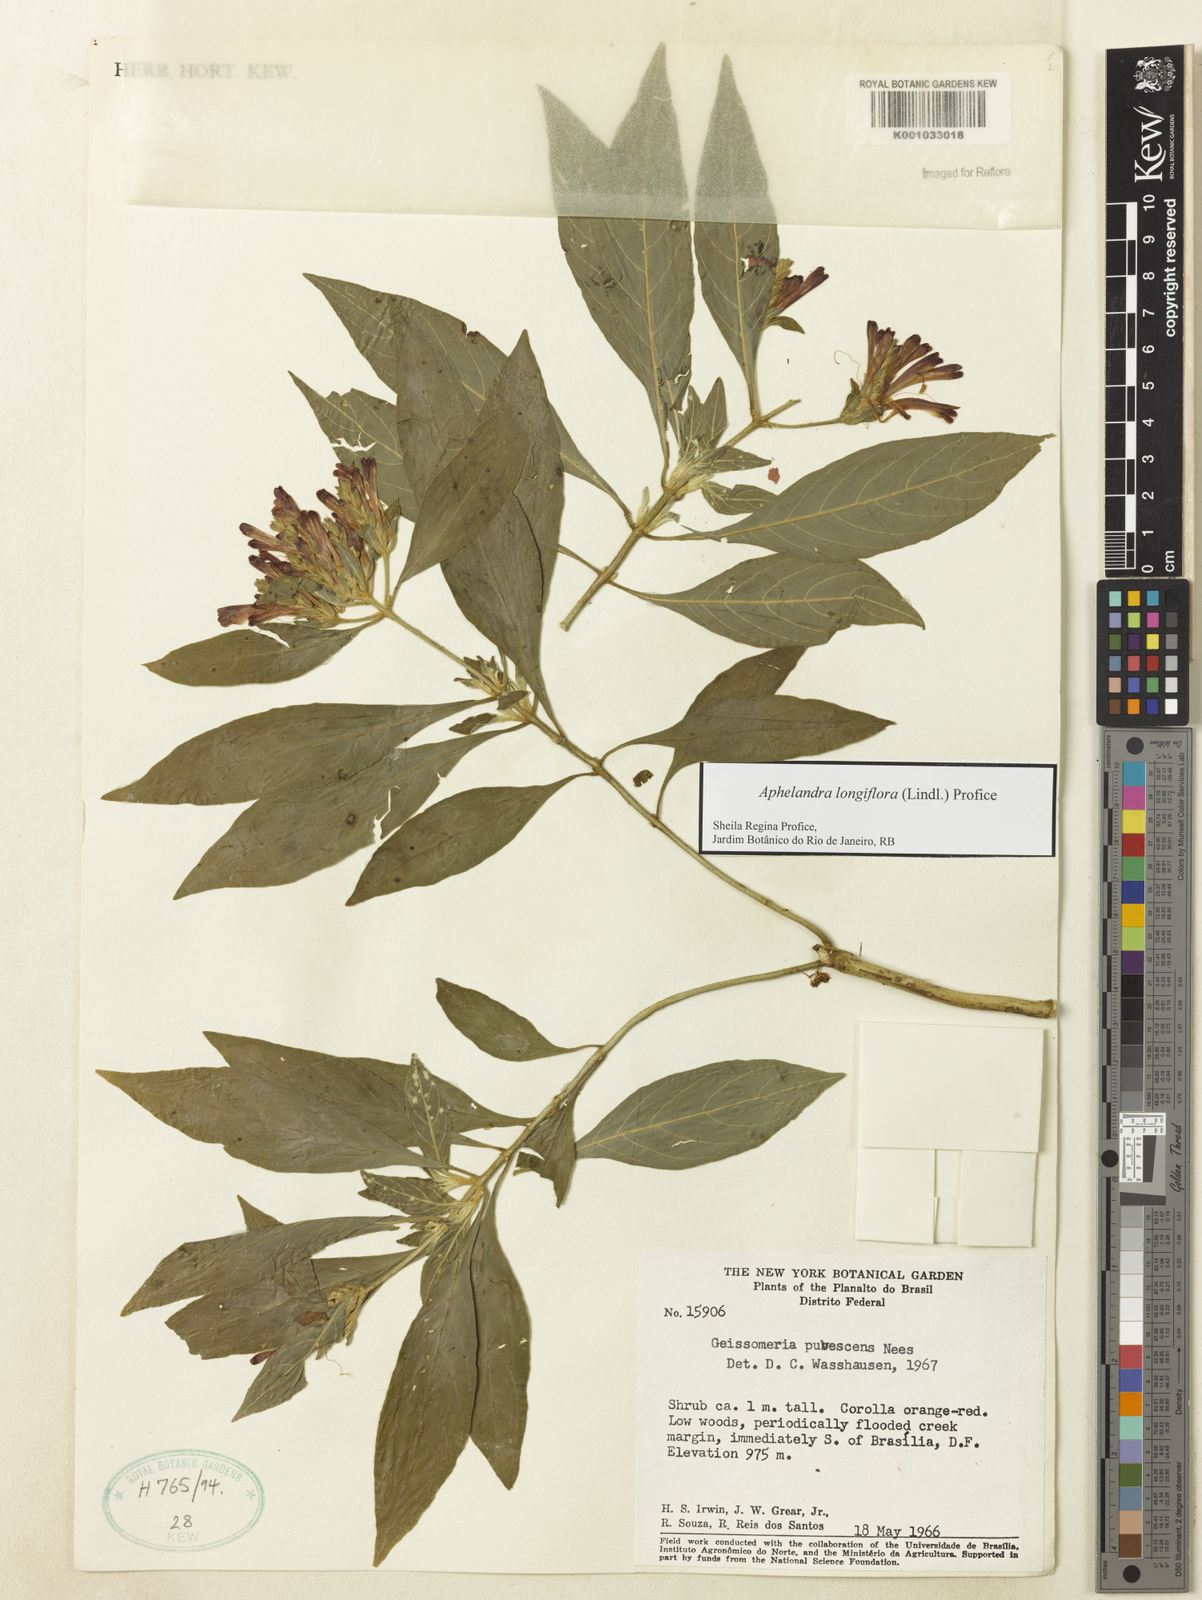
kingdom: Plantae
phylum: Tracheophyta
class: Magnoliopsida
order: Lamiales
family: Acanthaceae
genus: Aphelandra
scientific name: Aphelandra longiflora
